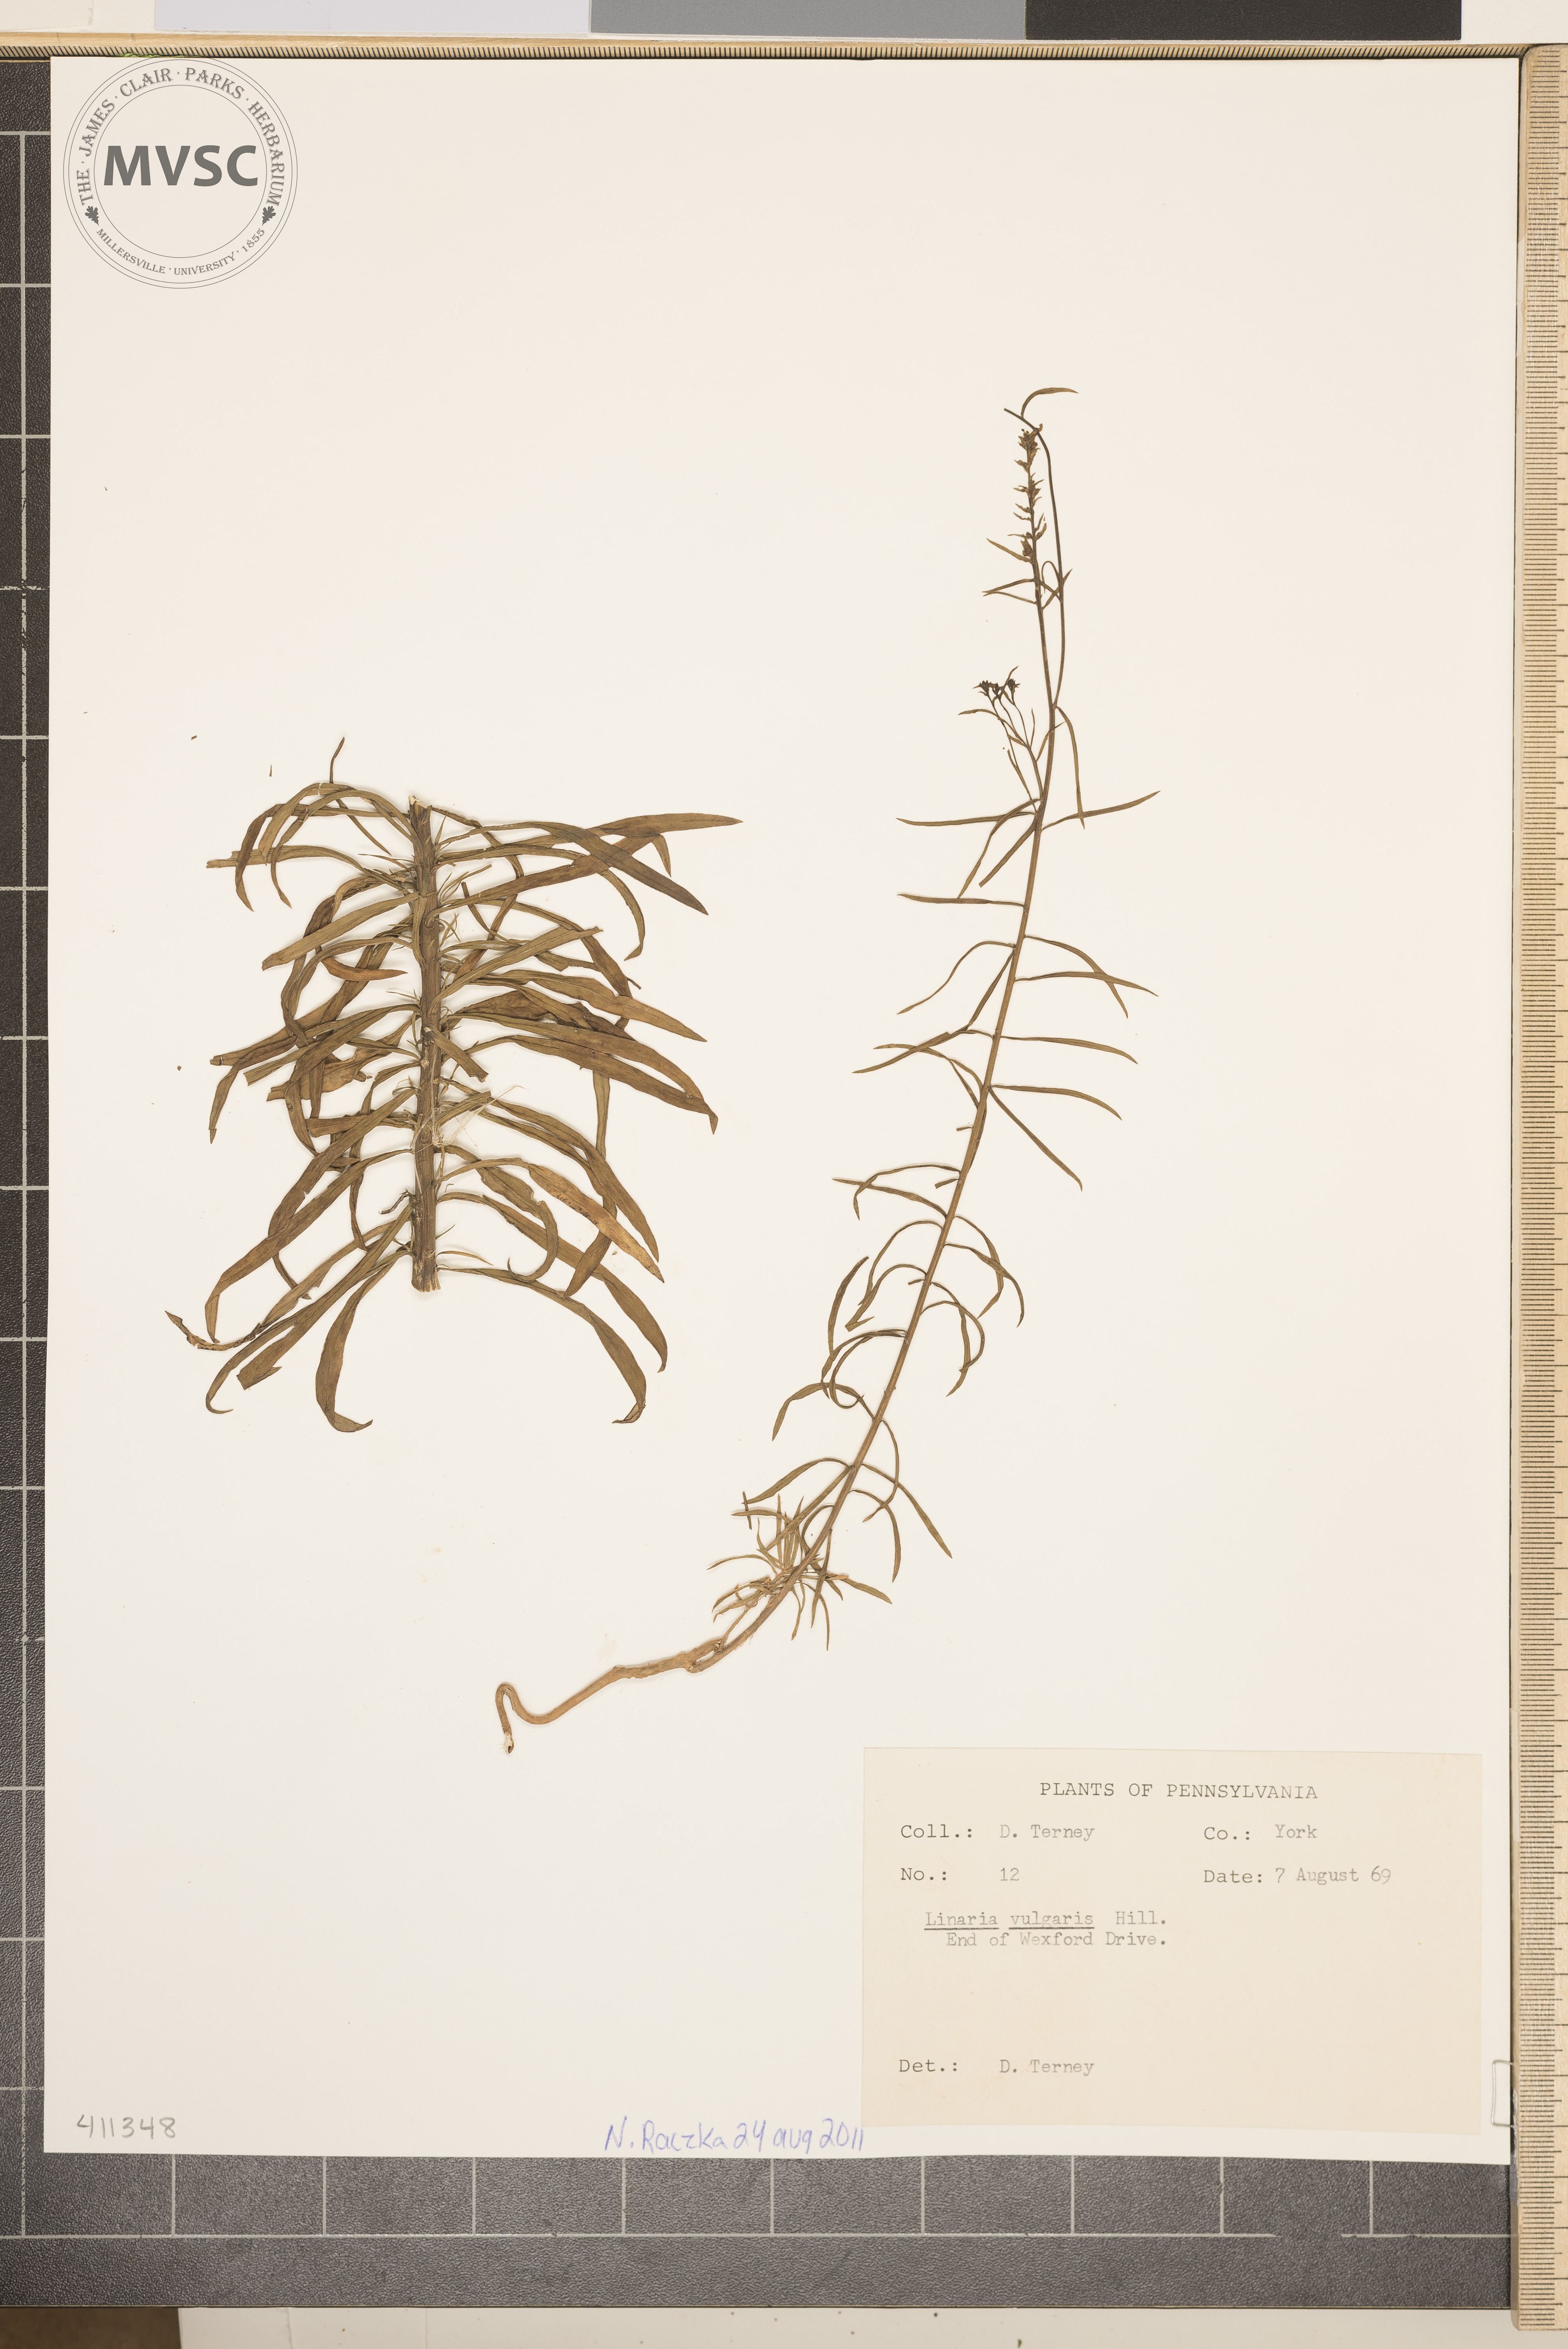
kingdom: Plantae
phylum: Tracheophyta
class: Magnoliopsida
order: Lamiales
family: Plantaginaceae
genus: Linaria
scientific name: Linaria vulgaris
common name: Butter-and-eggs
